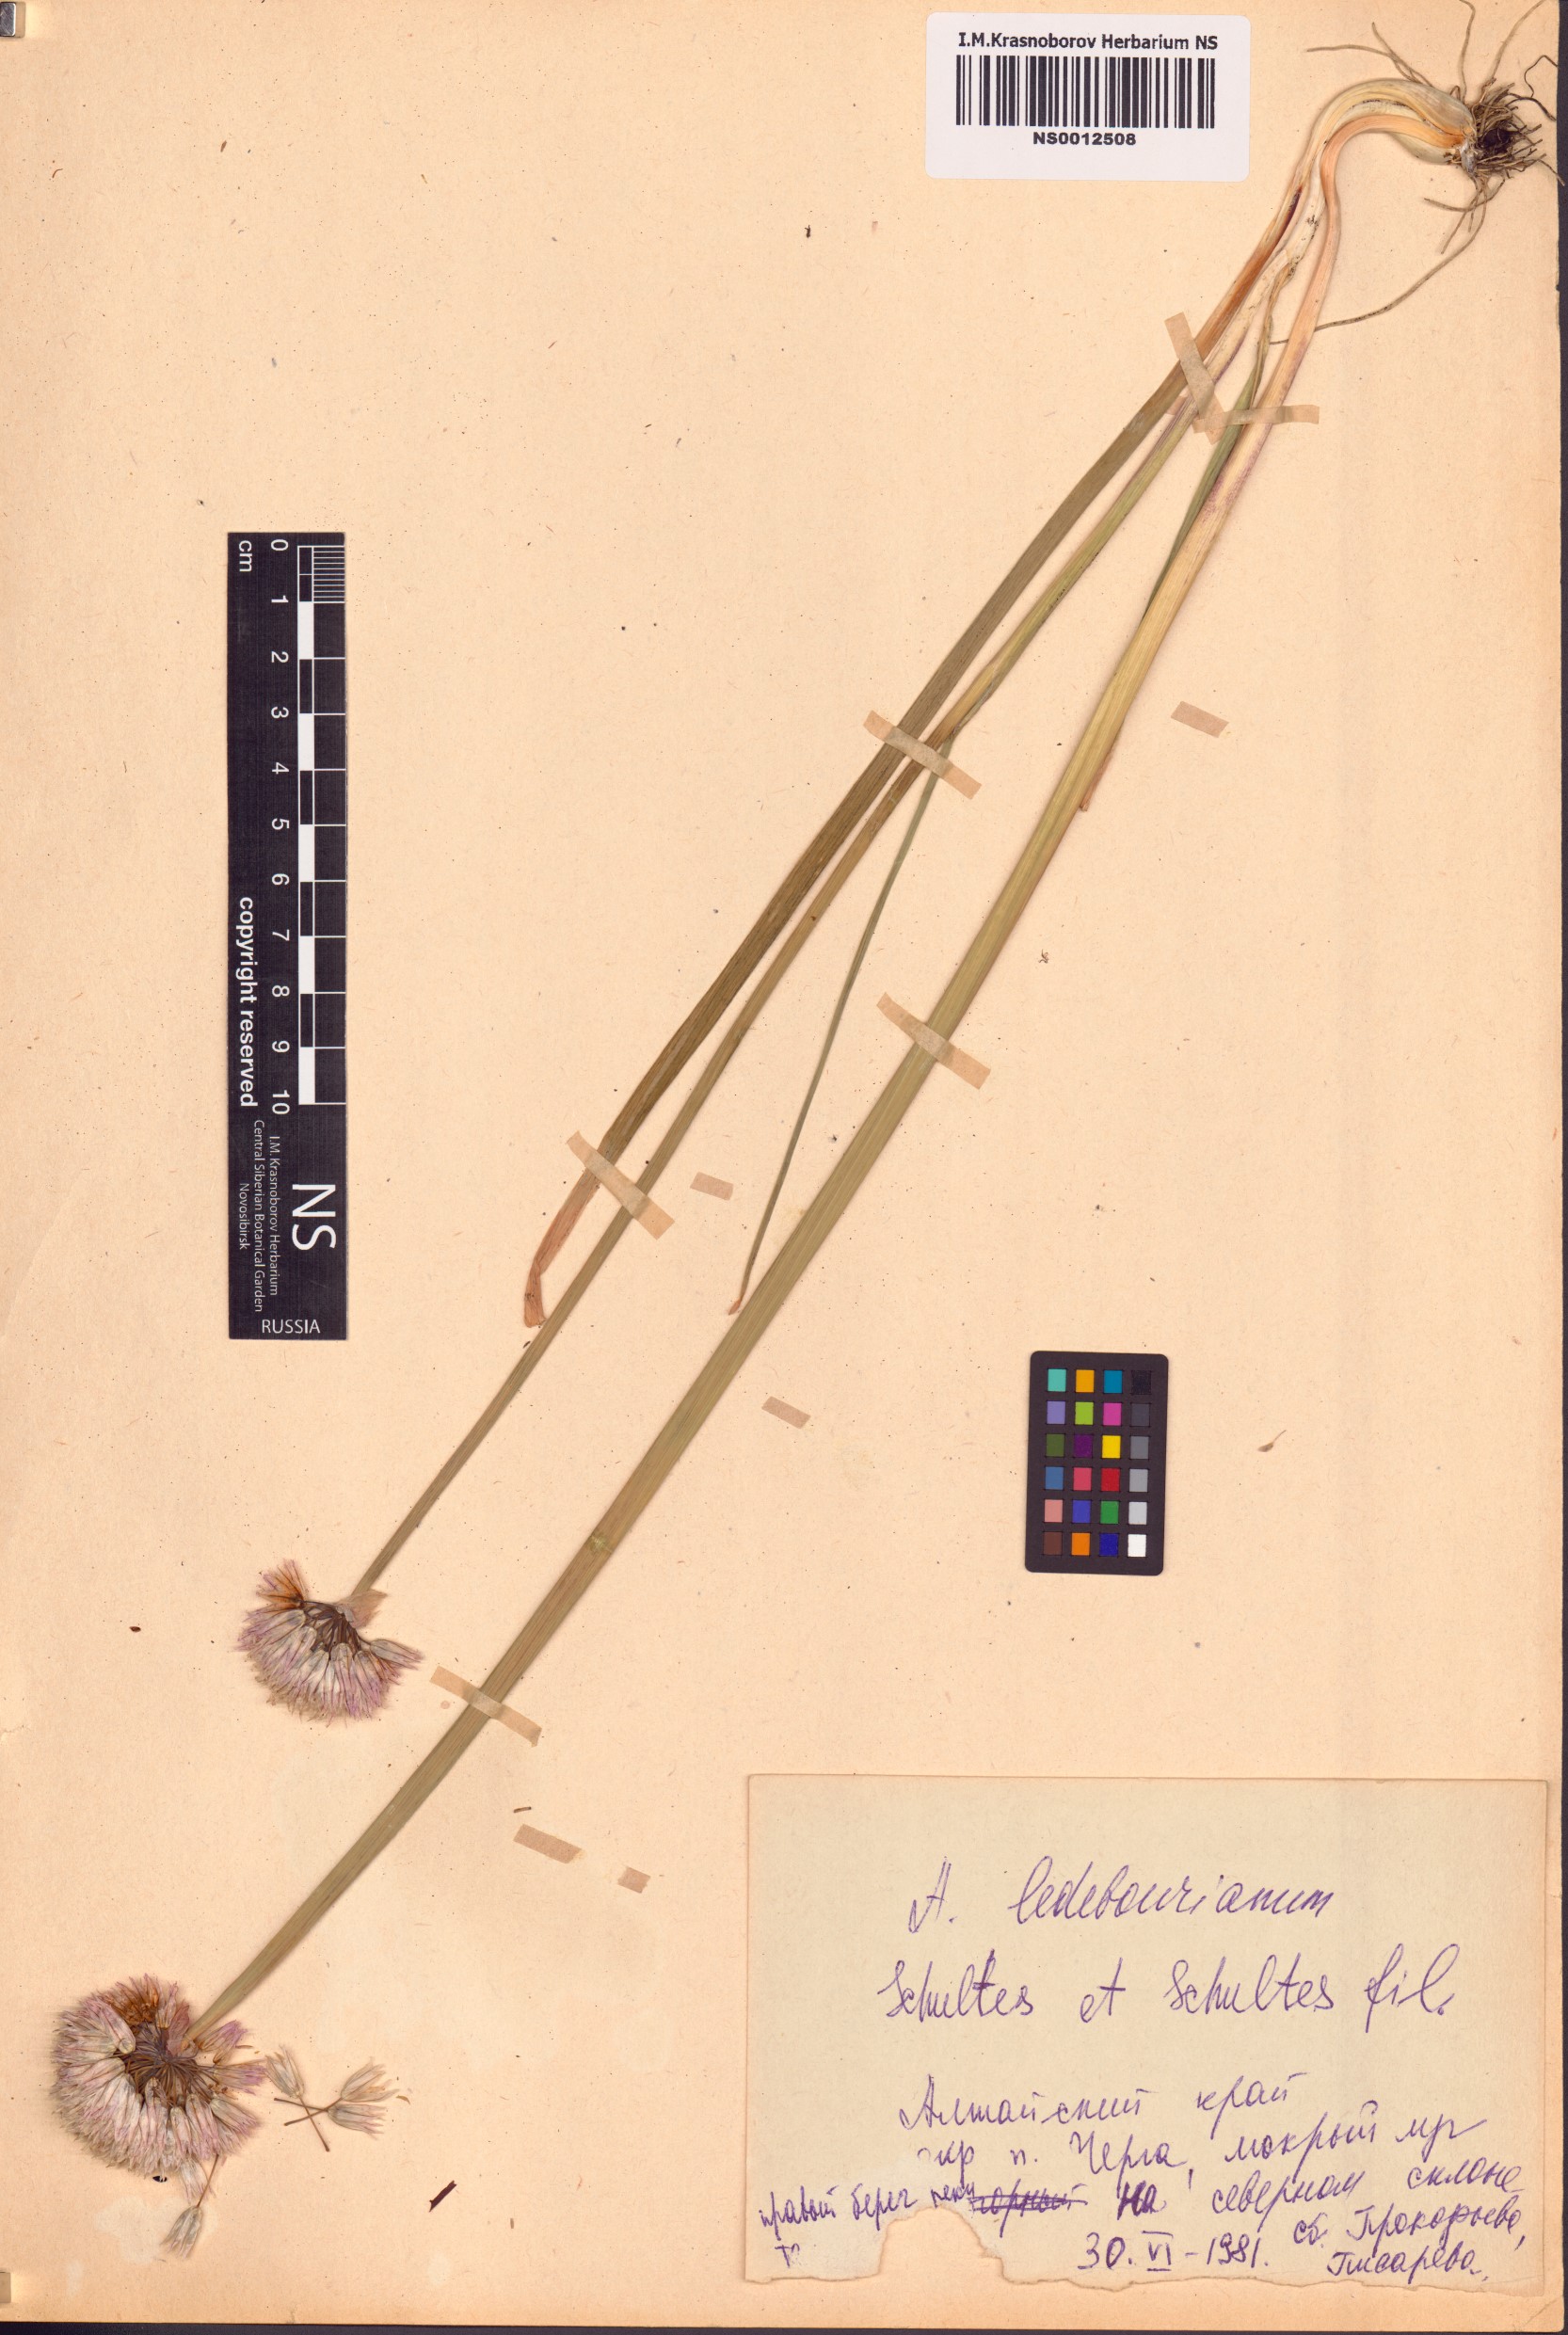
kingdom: Plantae
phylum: Tracheophyta
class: Liliopsida
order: Asparagales
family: Amaryllidaceae
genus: Allium
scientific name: Allium ledebourianum
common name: Ledebour chive
